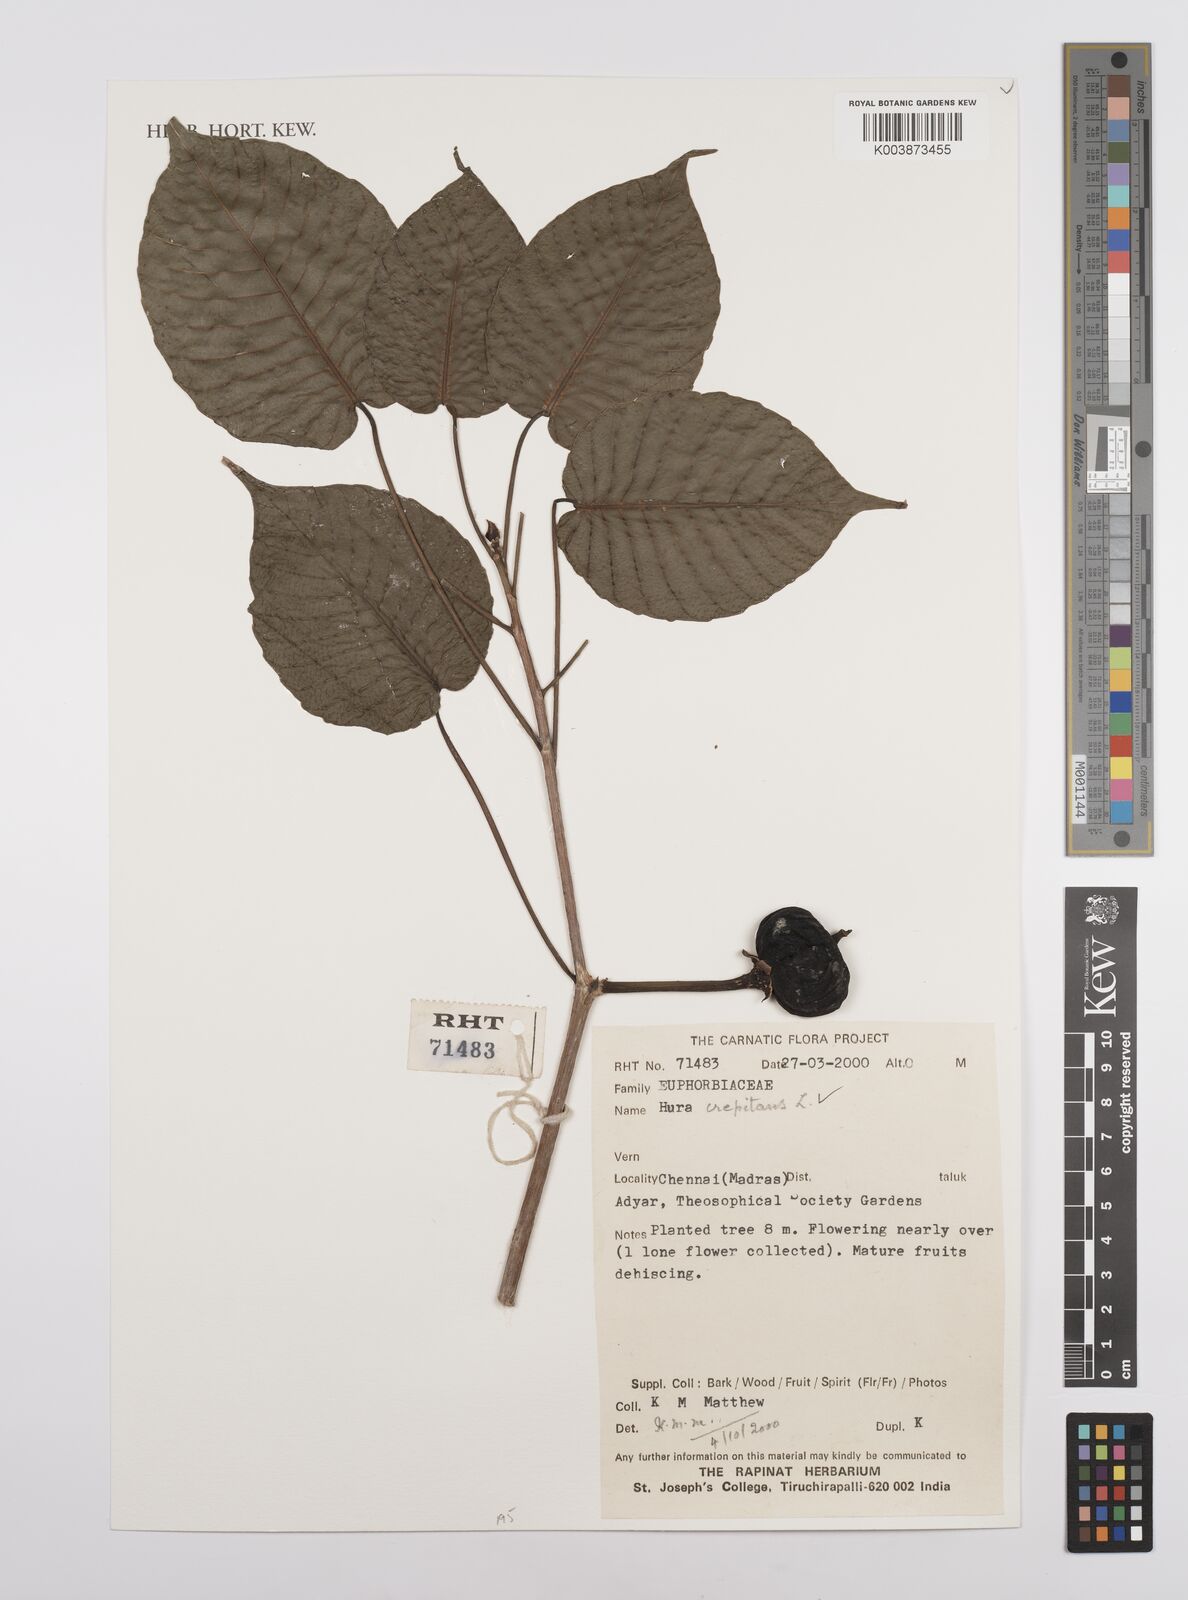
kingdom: Plantae
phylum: Tracheophyta
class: Magnoliopsida
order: Malpighiales
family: Euphorbiaceae
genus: Hura
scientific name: Hura crepitans
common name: Sandboxtree
